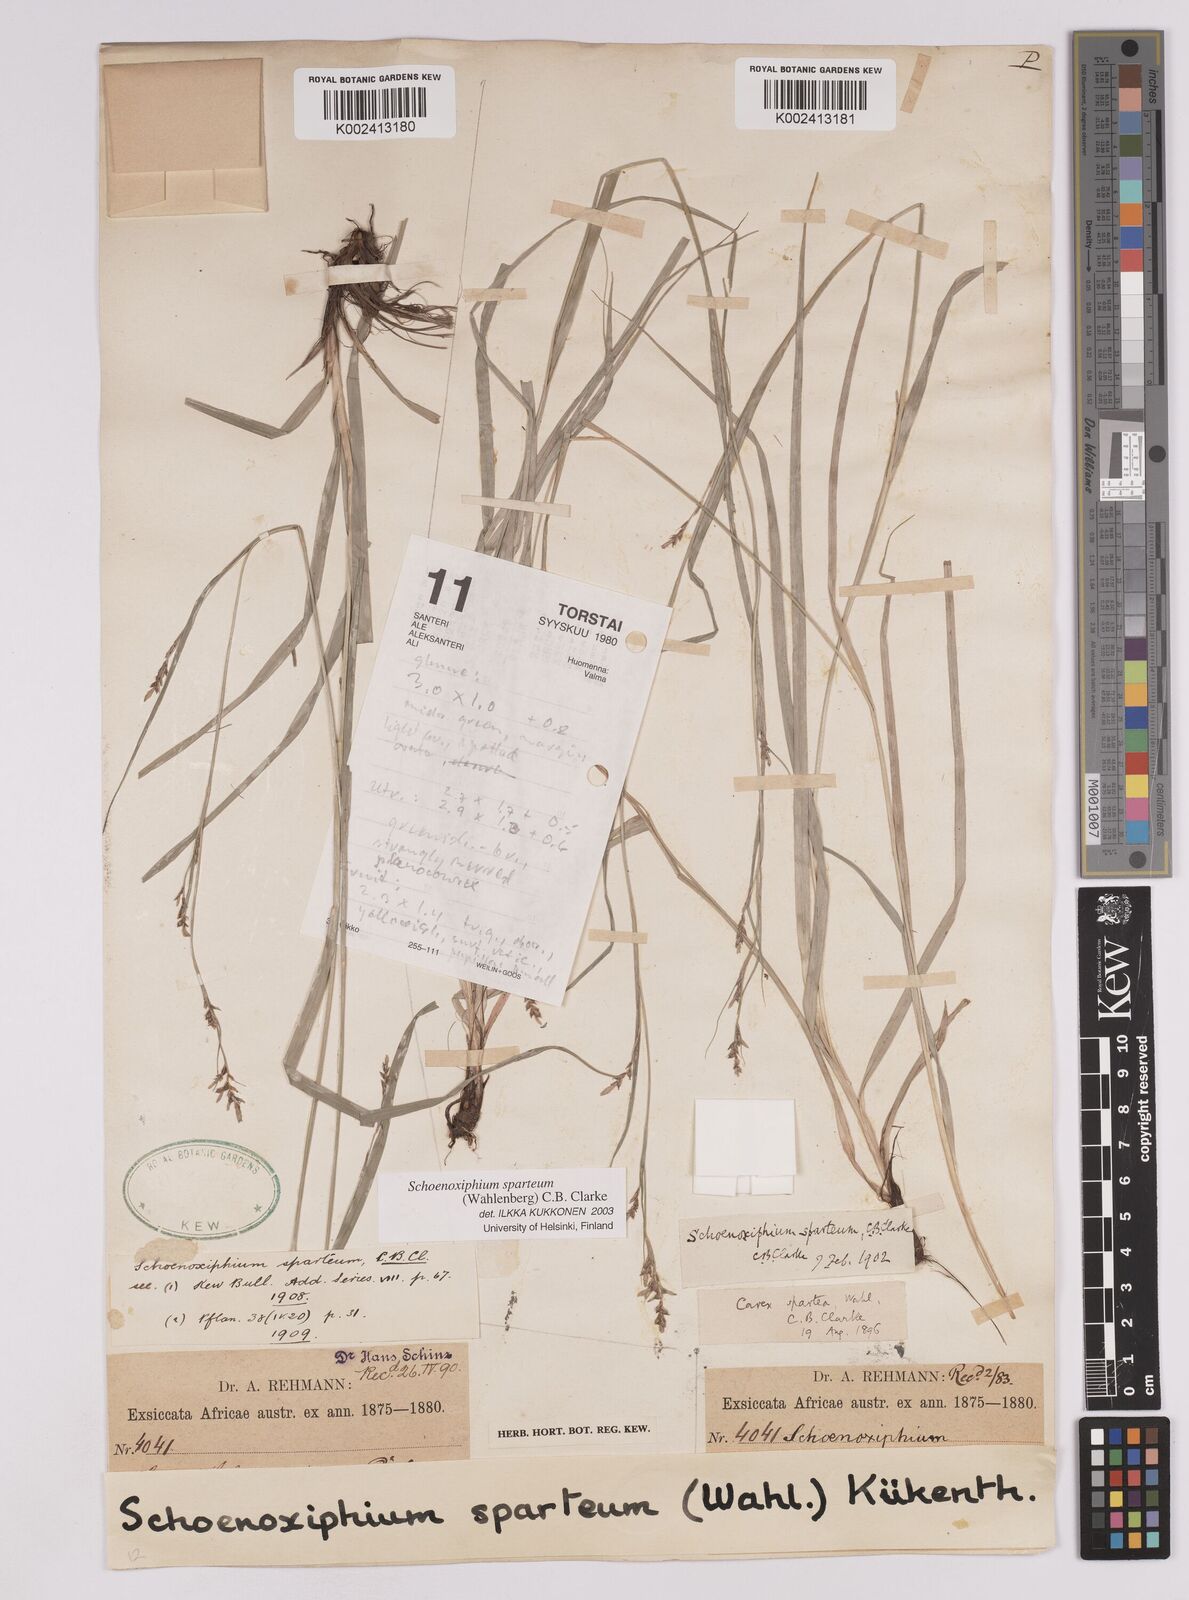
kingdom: Plantae
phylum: Tracheophyta
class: Liliopsida
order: Poales
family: Cyperaceae
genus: Carex
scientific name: Carex spartea
